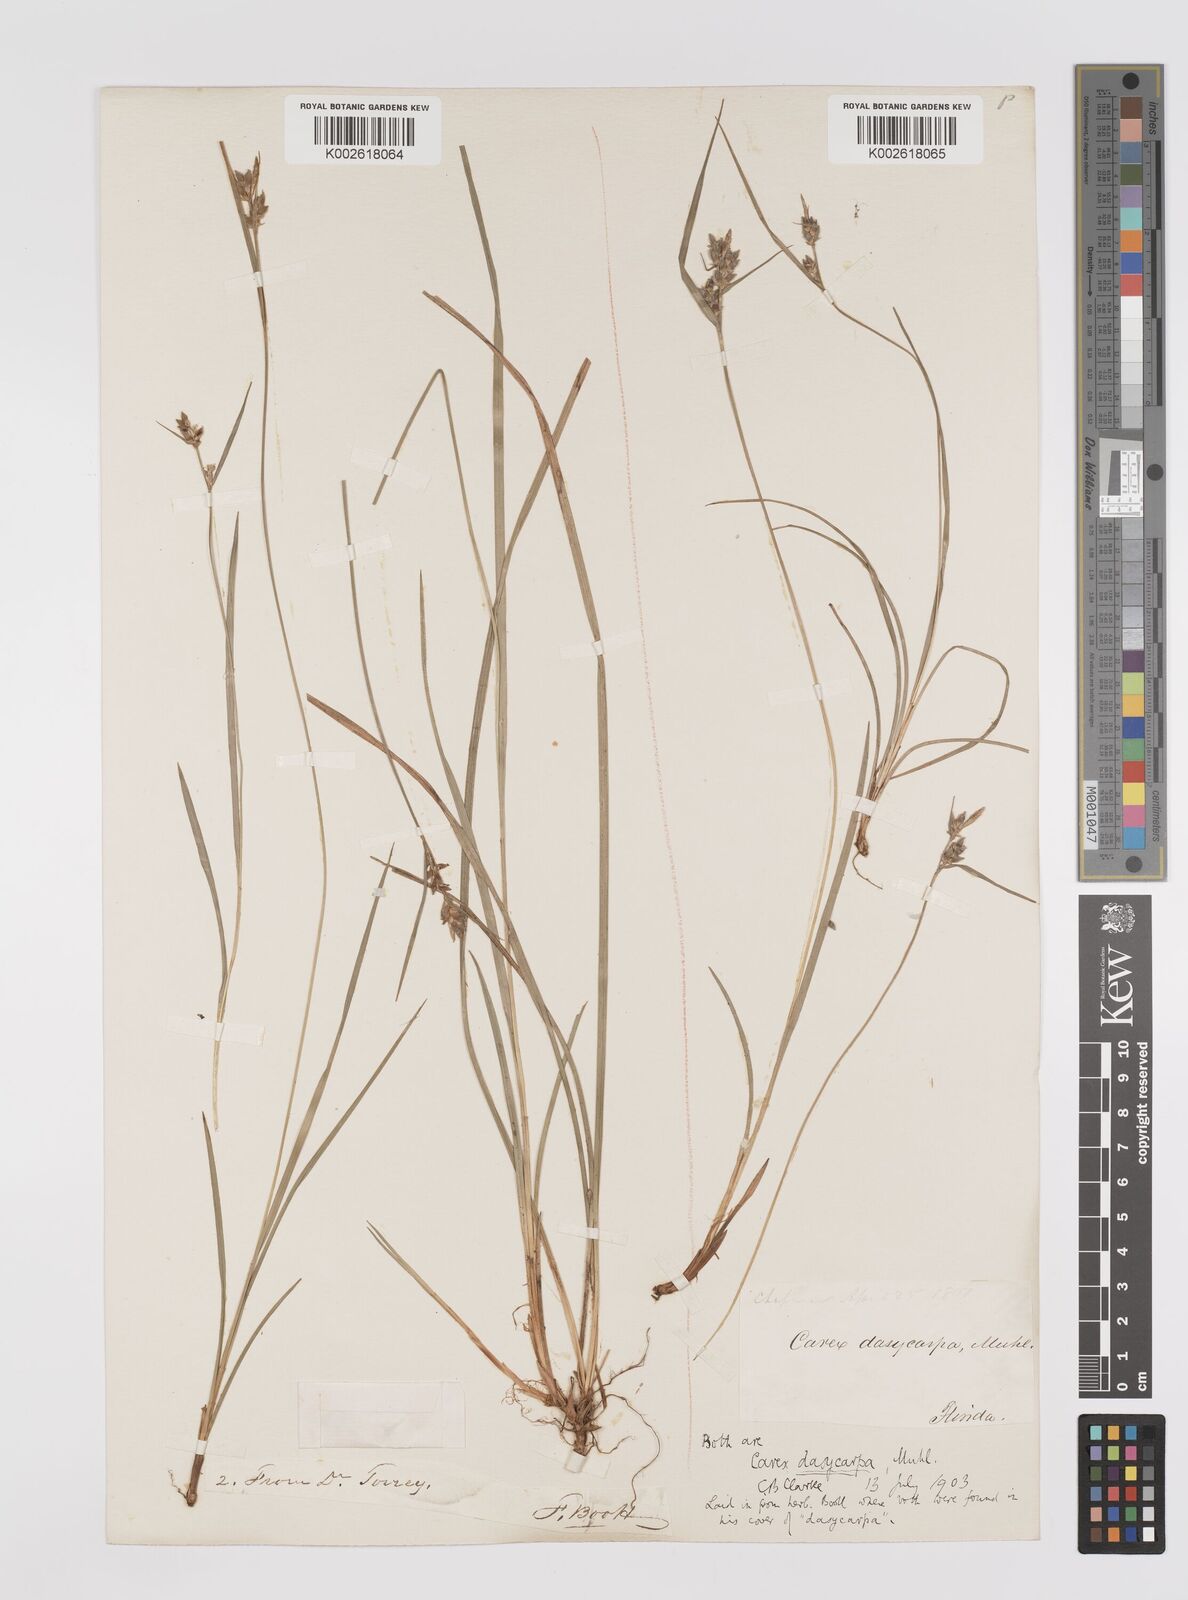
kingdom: Plantae
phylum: Tracheophyta
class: Liliopsida
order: Poales
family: Cyperaceae
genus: Carex
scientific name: Carex dasycarpa
